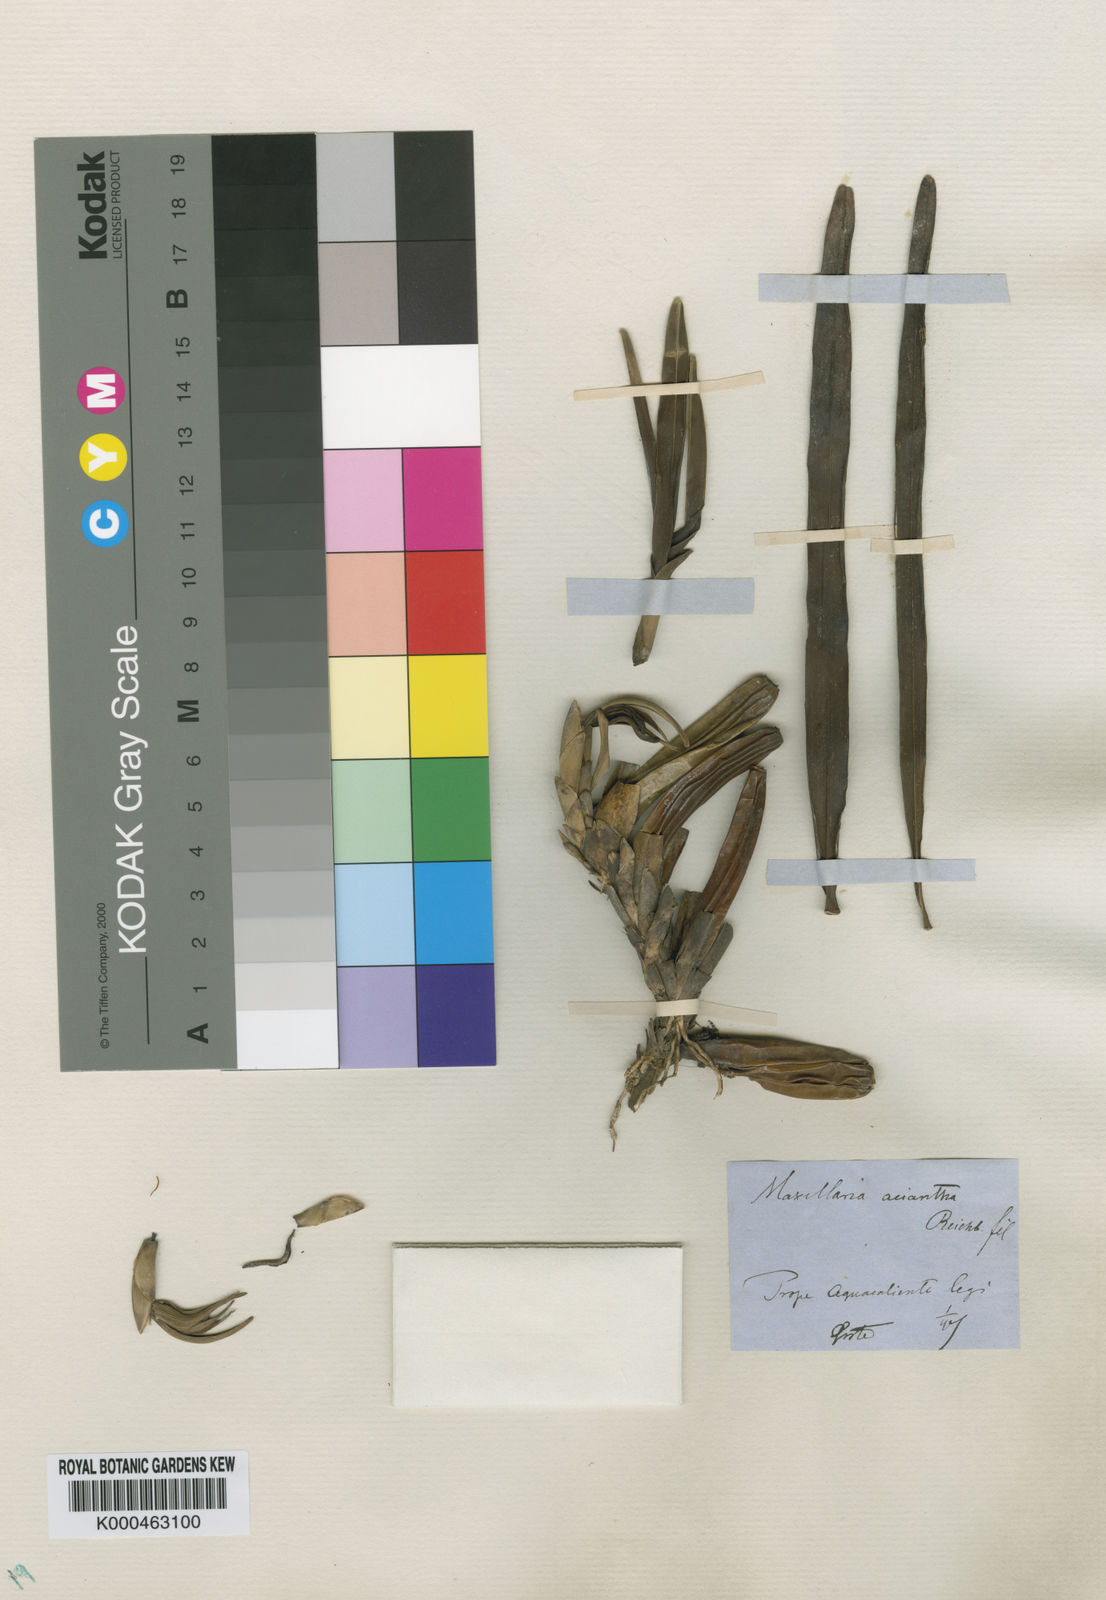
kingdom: Plantae
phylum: Tracheophyta
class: Liliopsida
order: Asparagales
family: Orchidaceae
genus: Maxillaria
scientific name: Maxillaria aciantha
